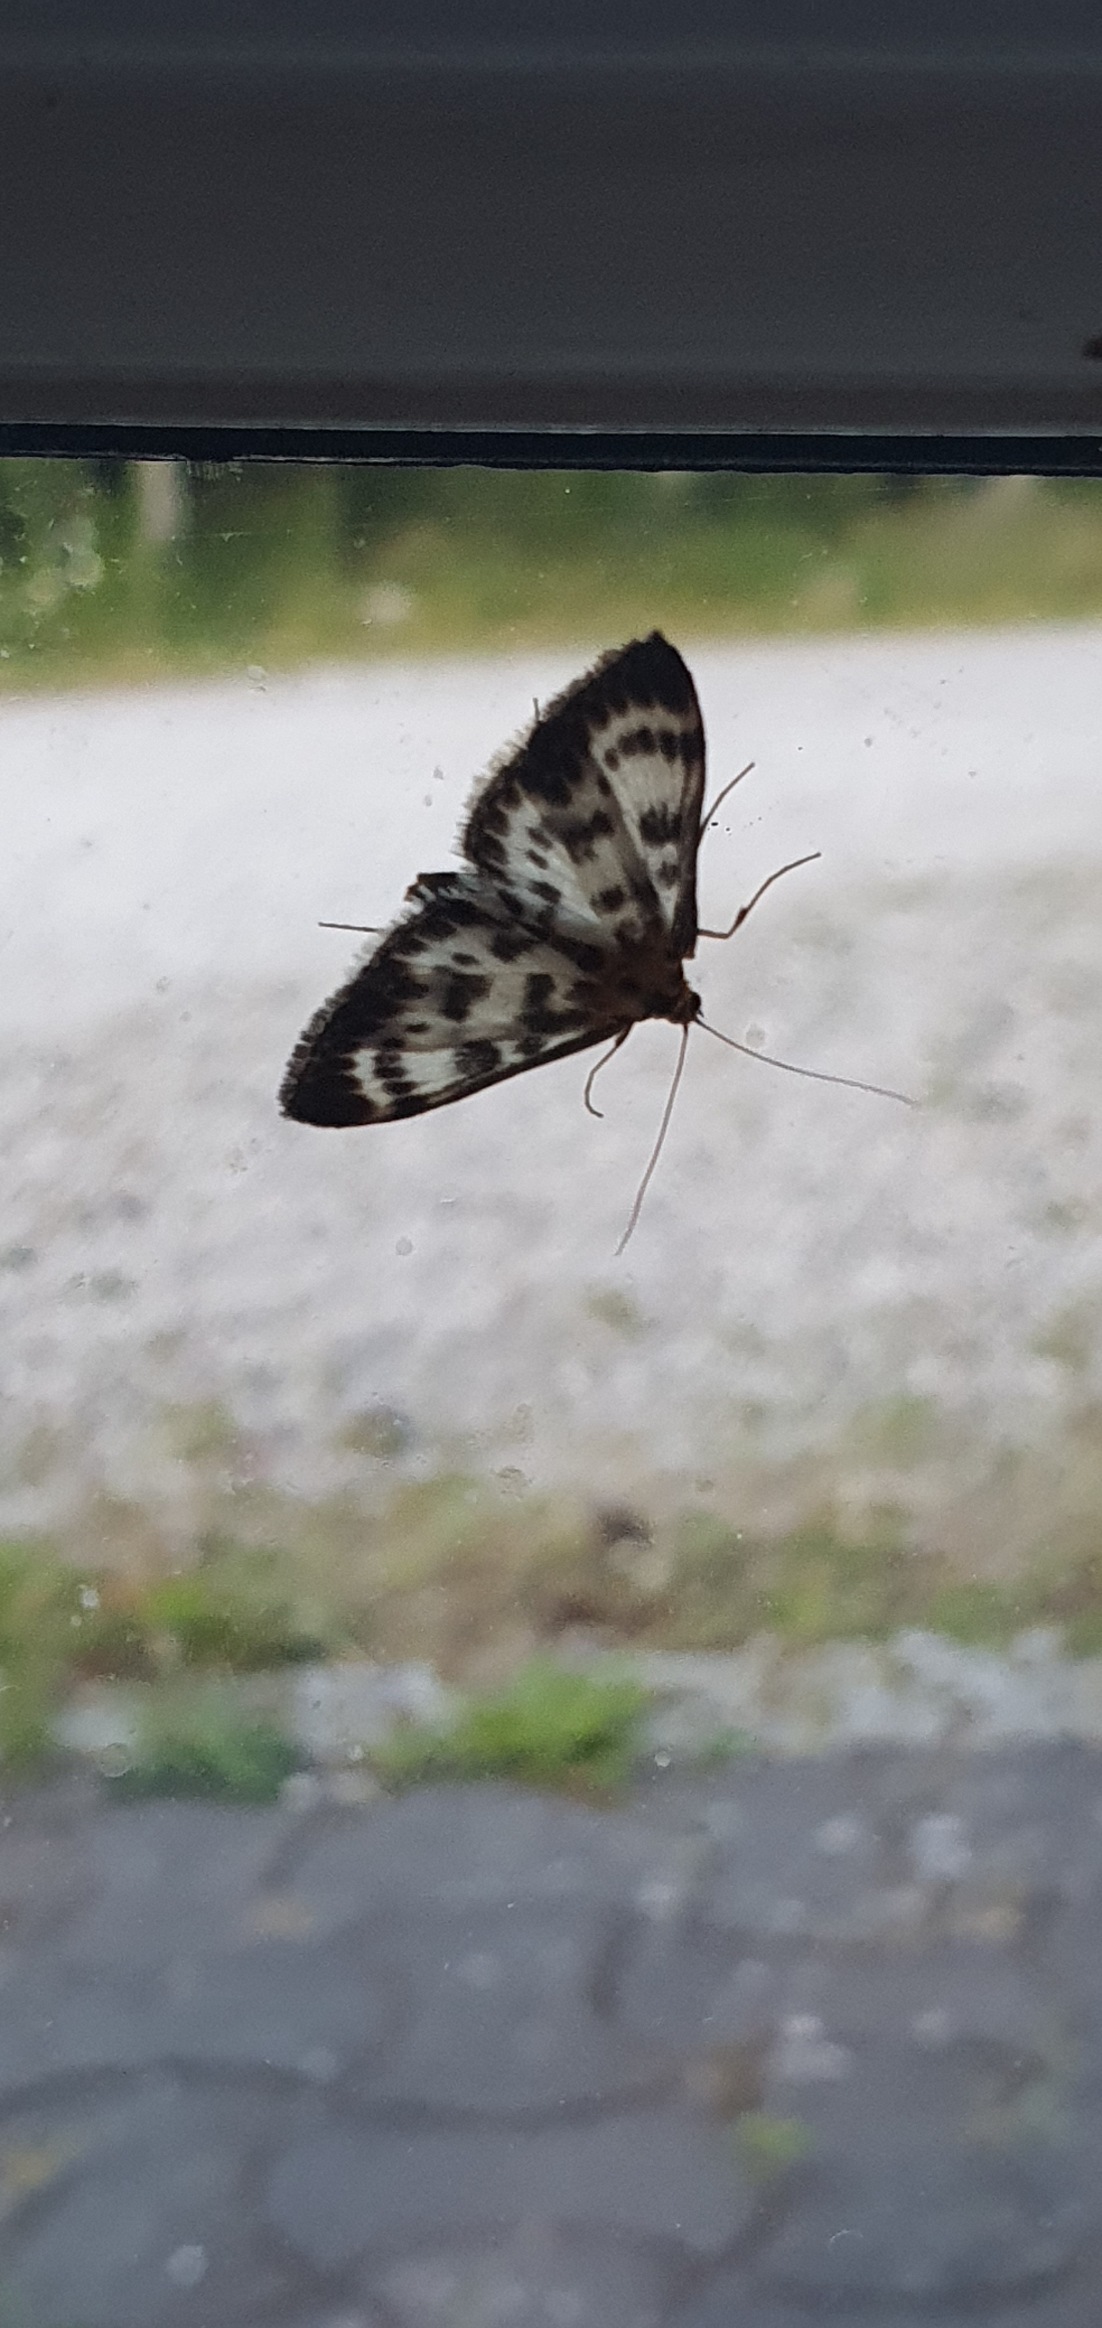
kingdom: Animalia
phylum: Arthropoda
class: Insecta
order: Lepidoptera
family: Crambidae
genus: Anania
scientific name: Anania hortulata
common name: Nældehalvmøl
